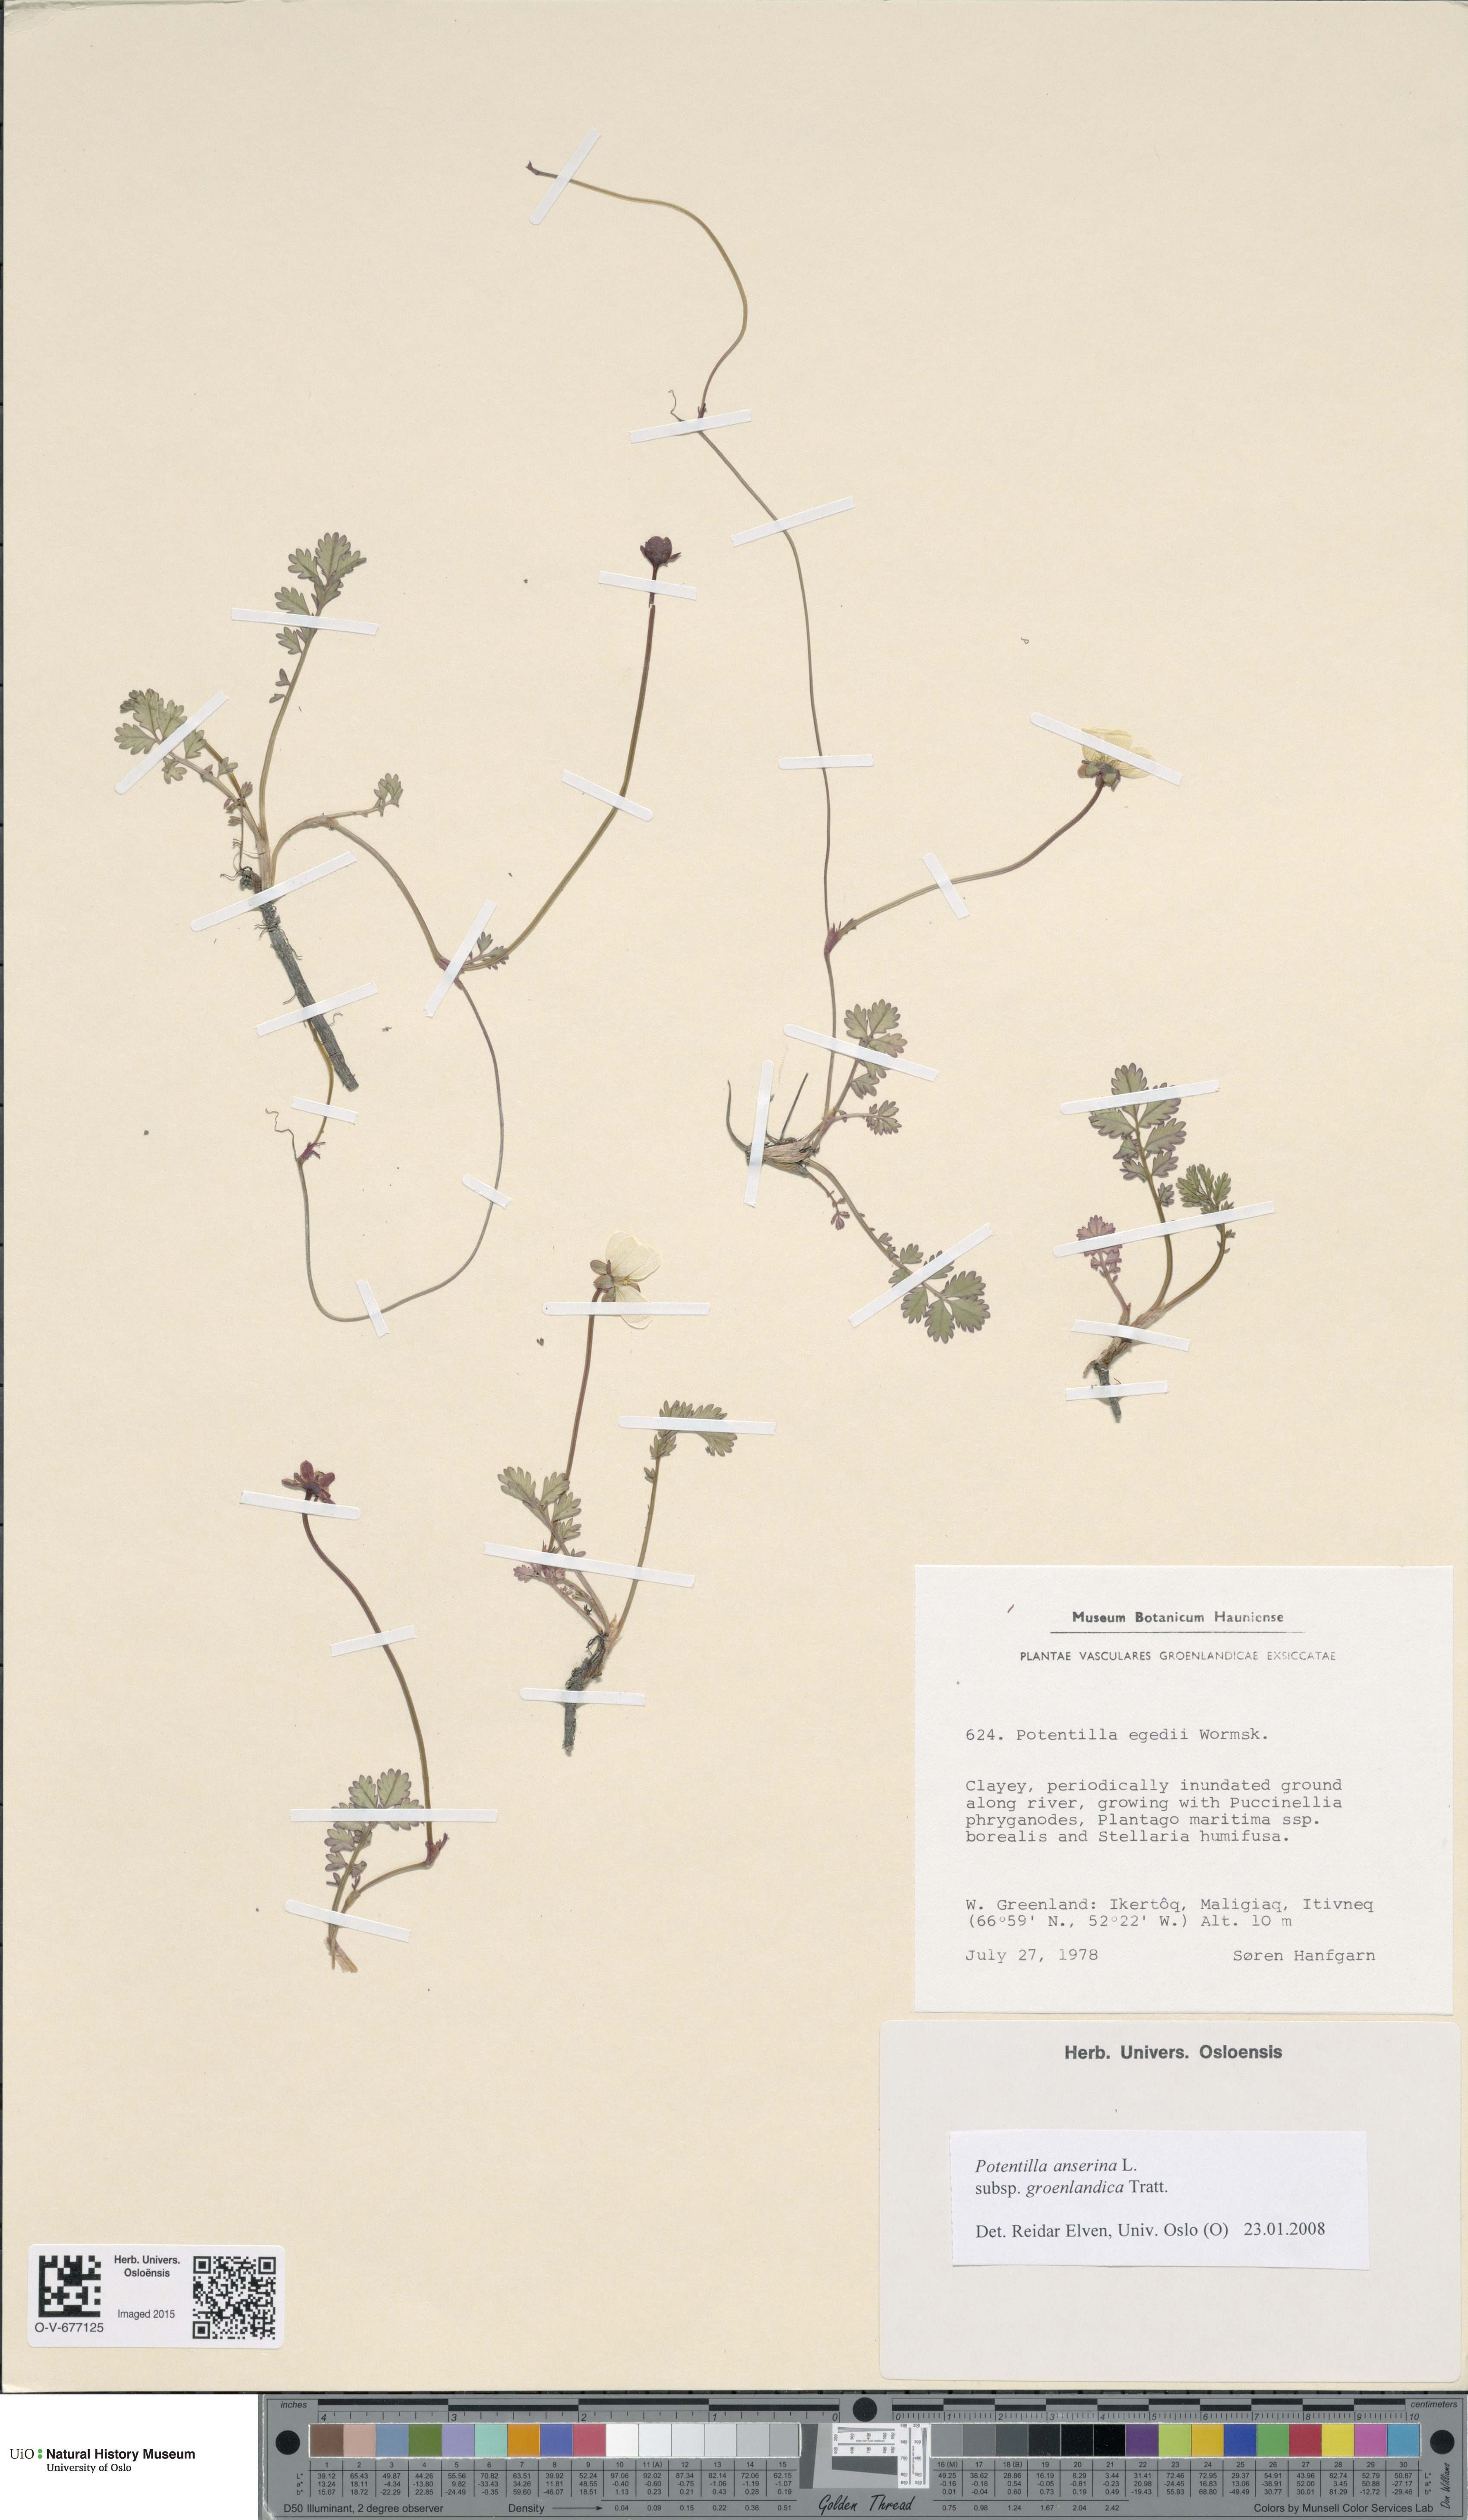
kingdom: Plantae
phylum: Tracheophyta
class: Magnoliopsida
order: Rosales
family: Rosaceae
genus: Argentina
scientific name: Argentina anserina
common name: Common silverweed
